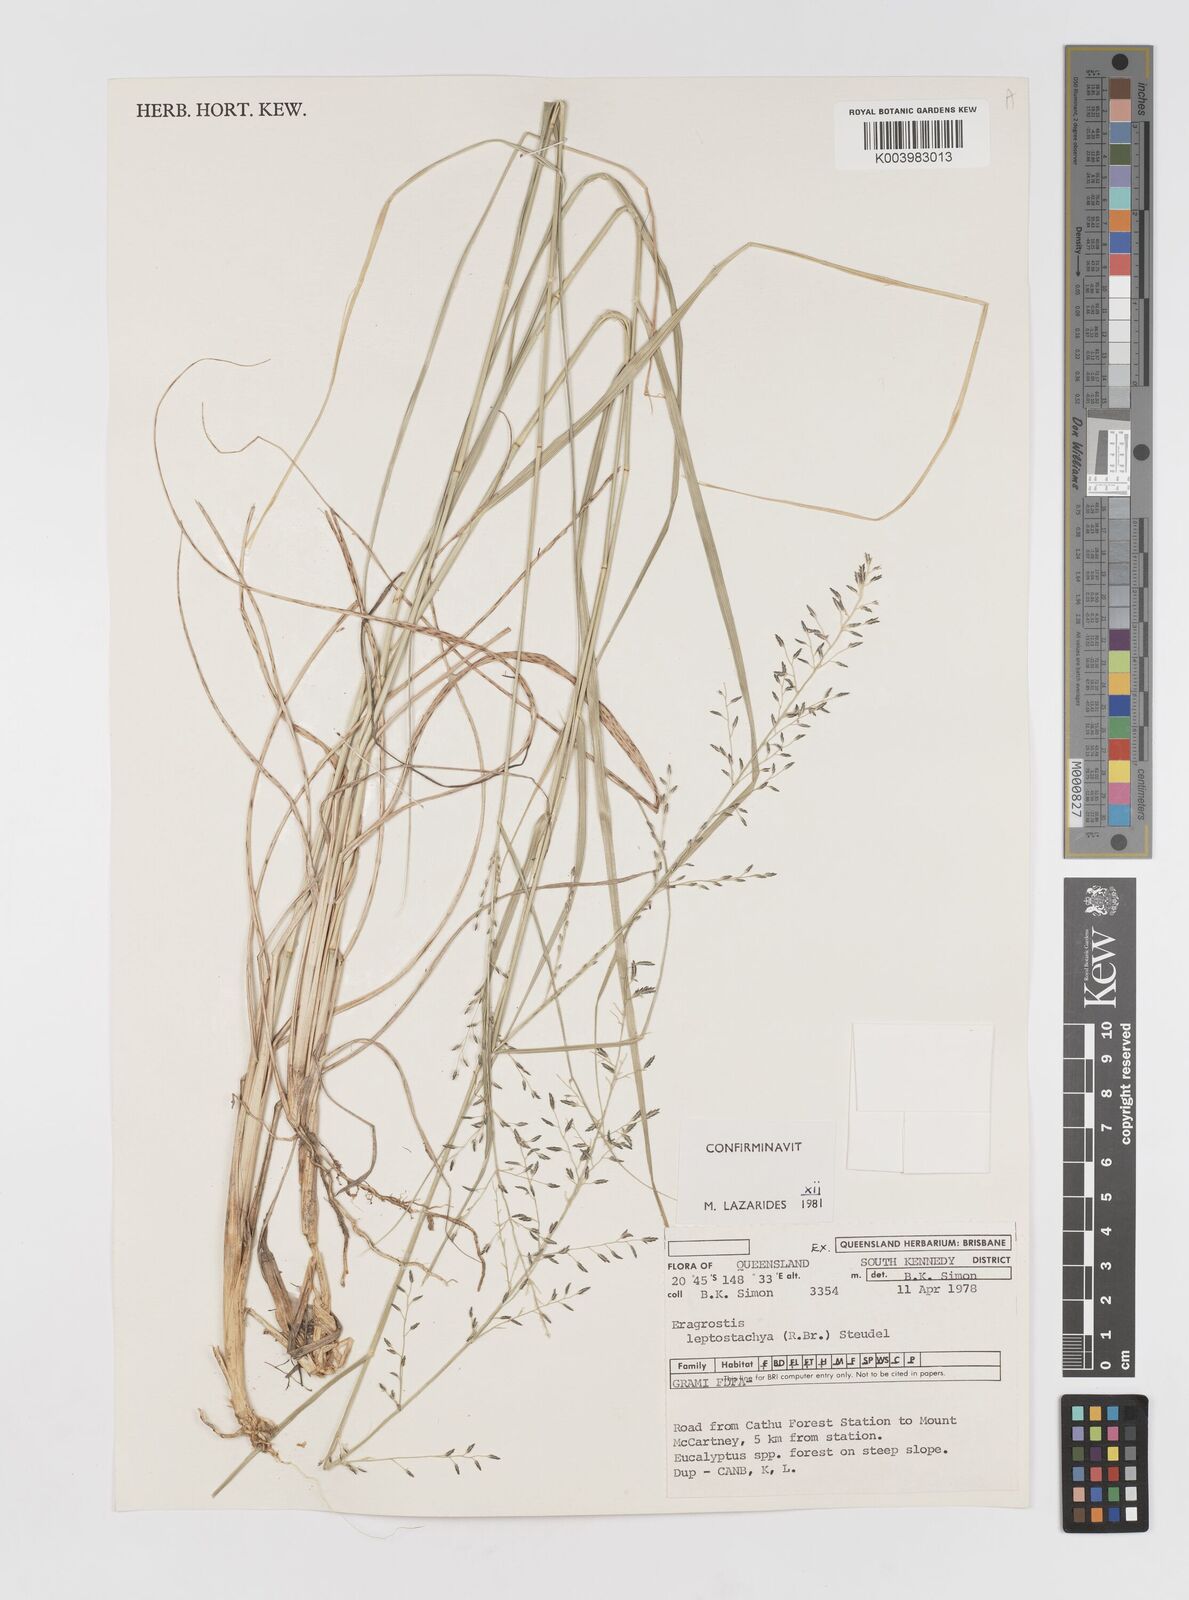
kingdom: Plantae
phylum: Tracheophyta
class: Liliopsida
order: Poales
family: Poaceae
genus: Eragrostis
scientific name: Eragrostis leptostachya
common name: Australian lovegrass
